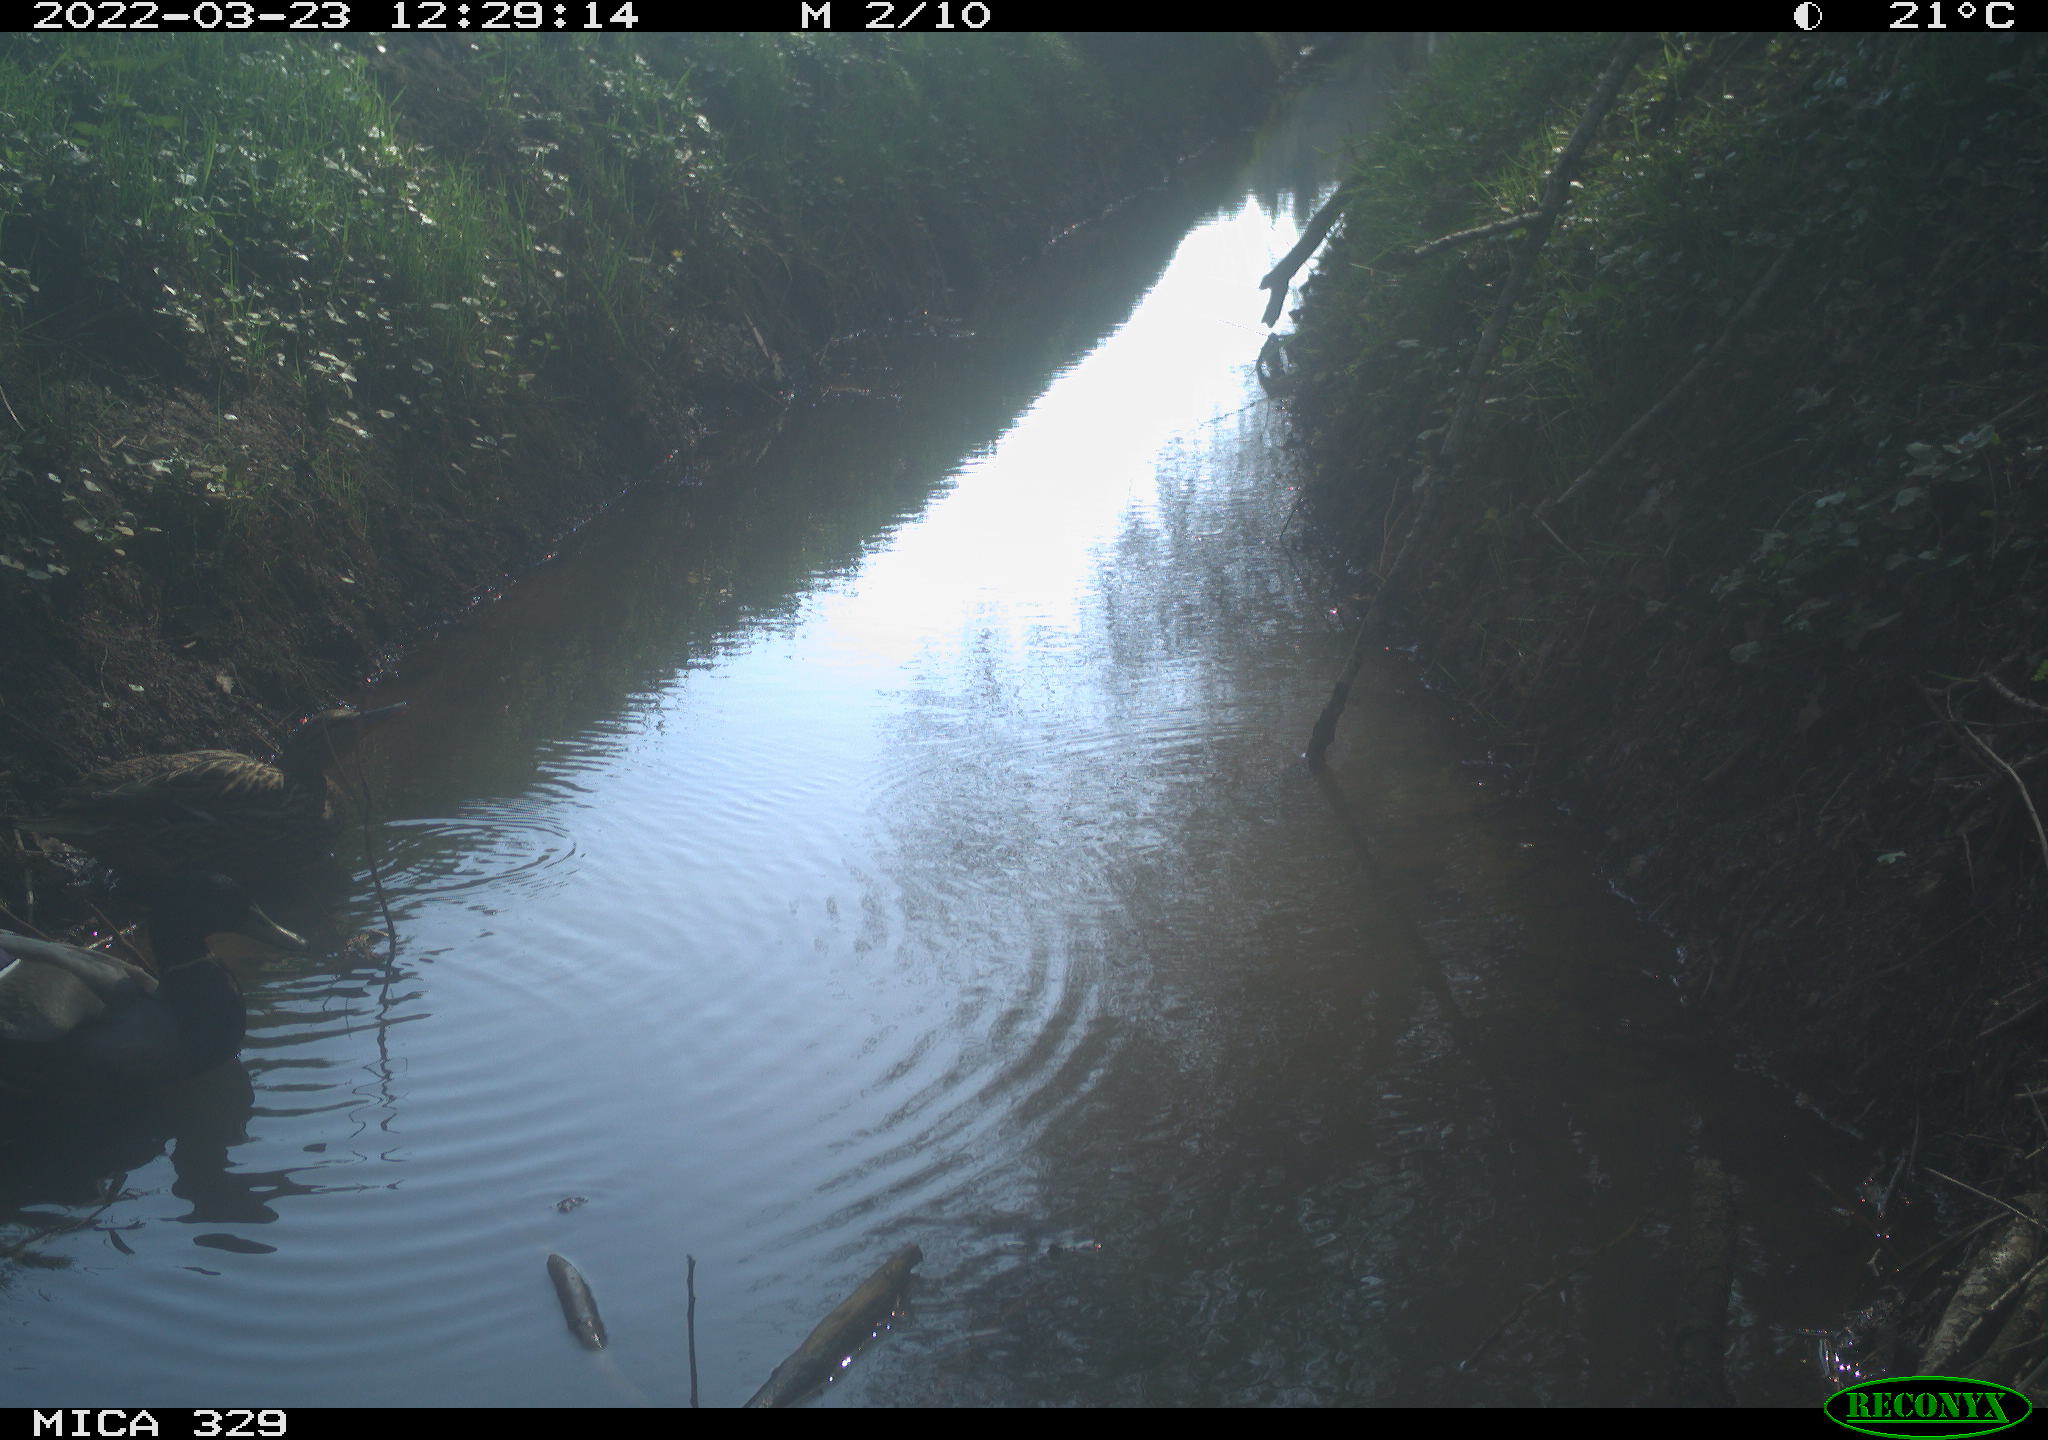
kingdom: Animalia
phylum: Chordata
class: Aves
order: Anseriformes
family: Anatidae
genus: Anas
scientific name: Anas platyrhynchos
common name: Mallard
